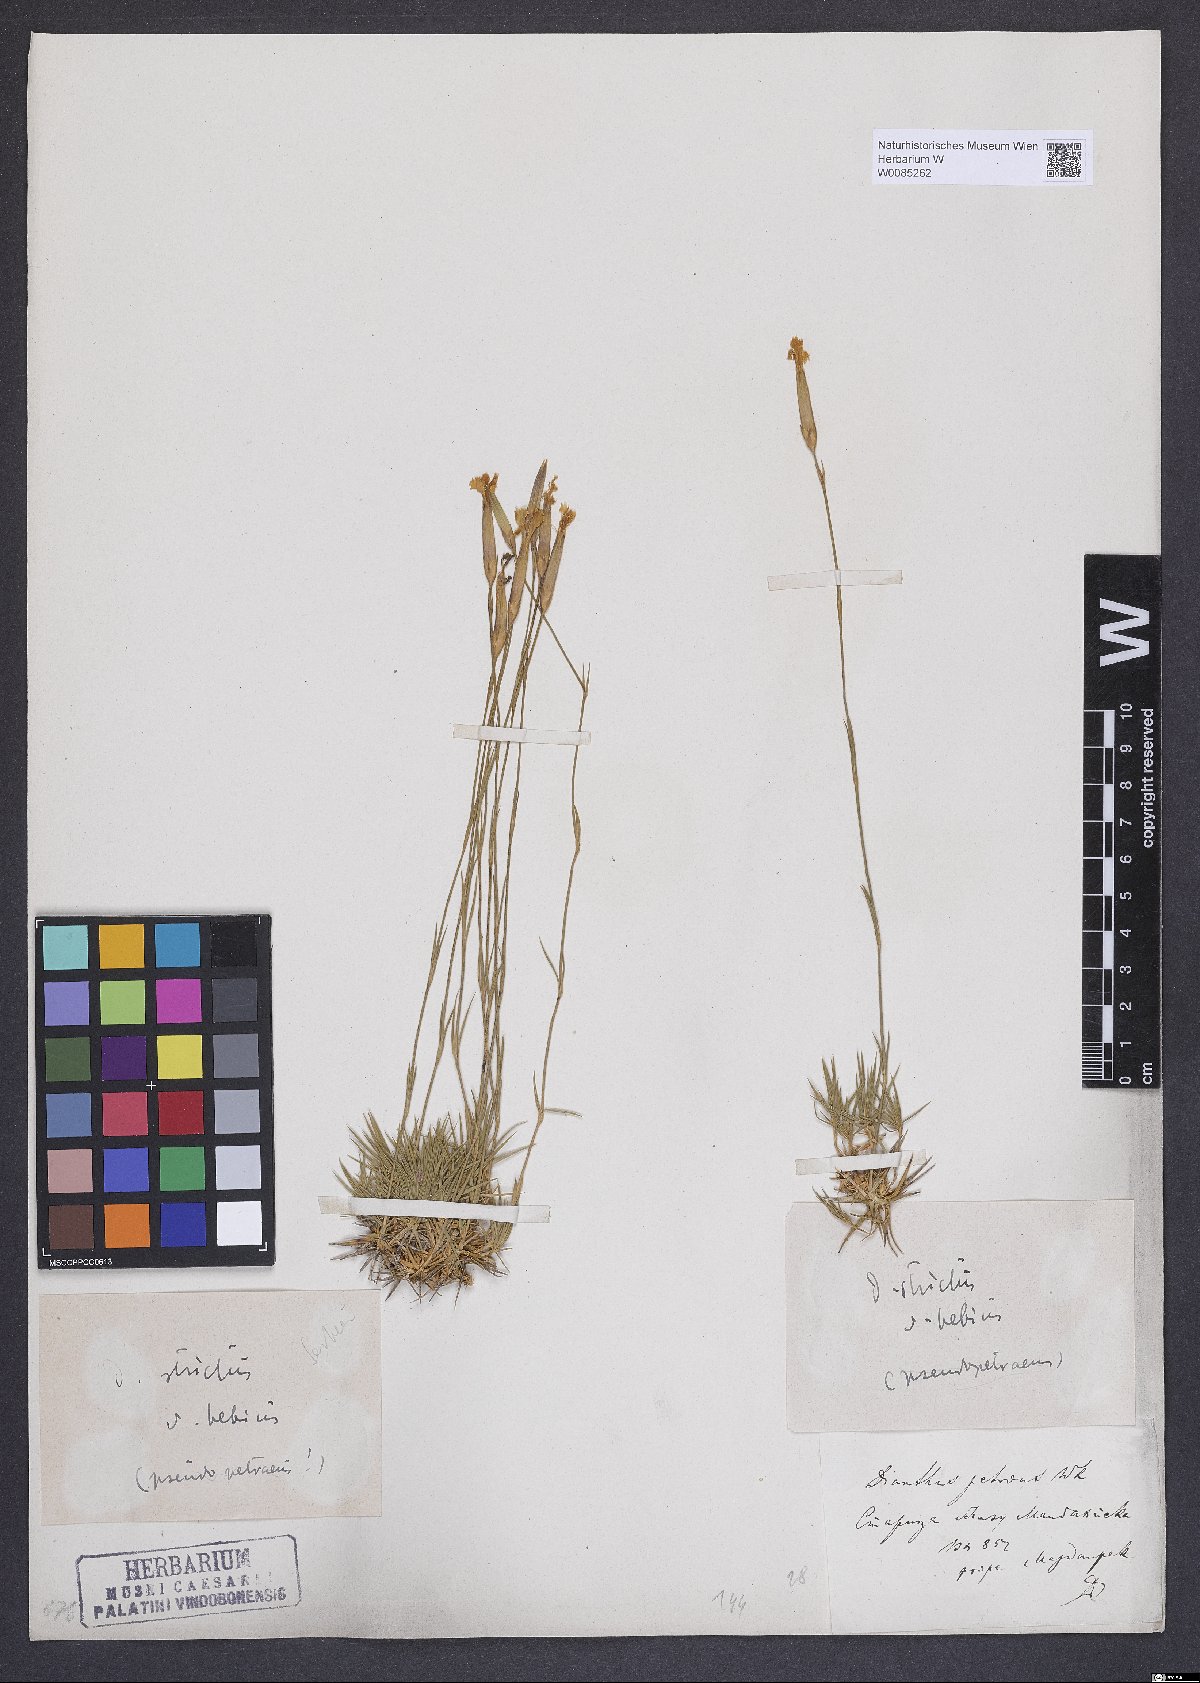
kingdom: Plantae
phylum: Tracheophyta
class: Magnoliopsida
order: Caryophyllales
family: Caryophyllaceae
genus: Dianthus
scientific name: Dianthus petraeus
